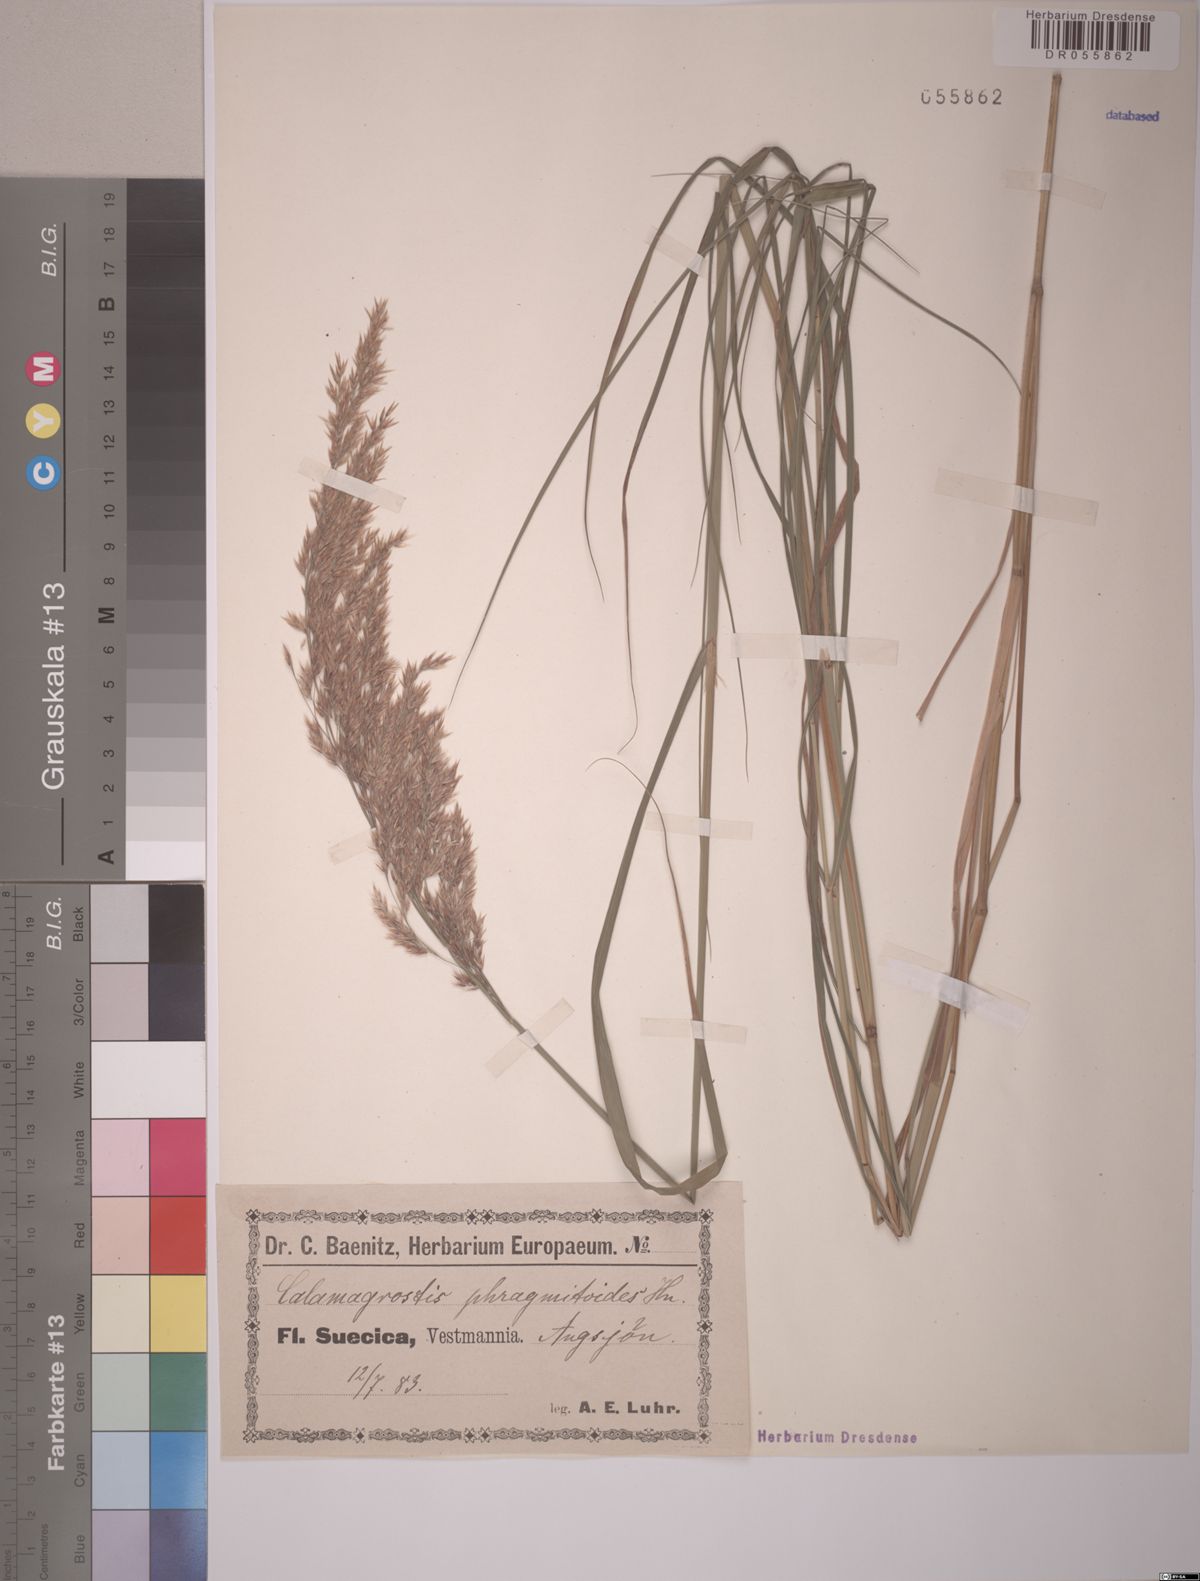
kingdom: Plantae
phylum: Tracheophyta
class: Liliopsida
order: Poales
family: Poaceae
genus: Calamagrostis
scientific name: Calamagrostis purpurea
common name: Scandinavian small-reed
